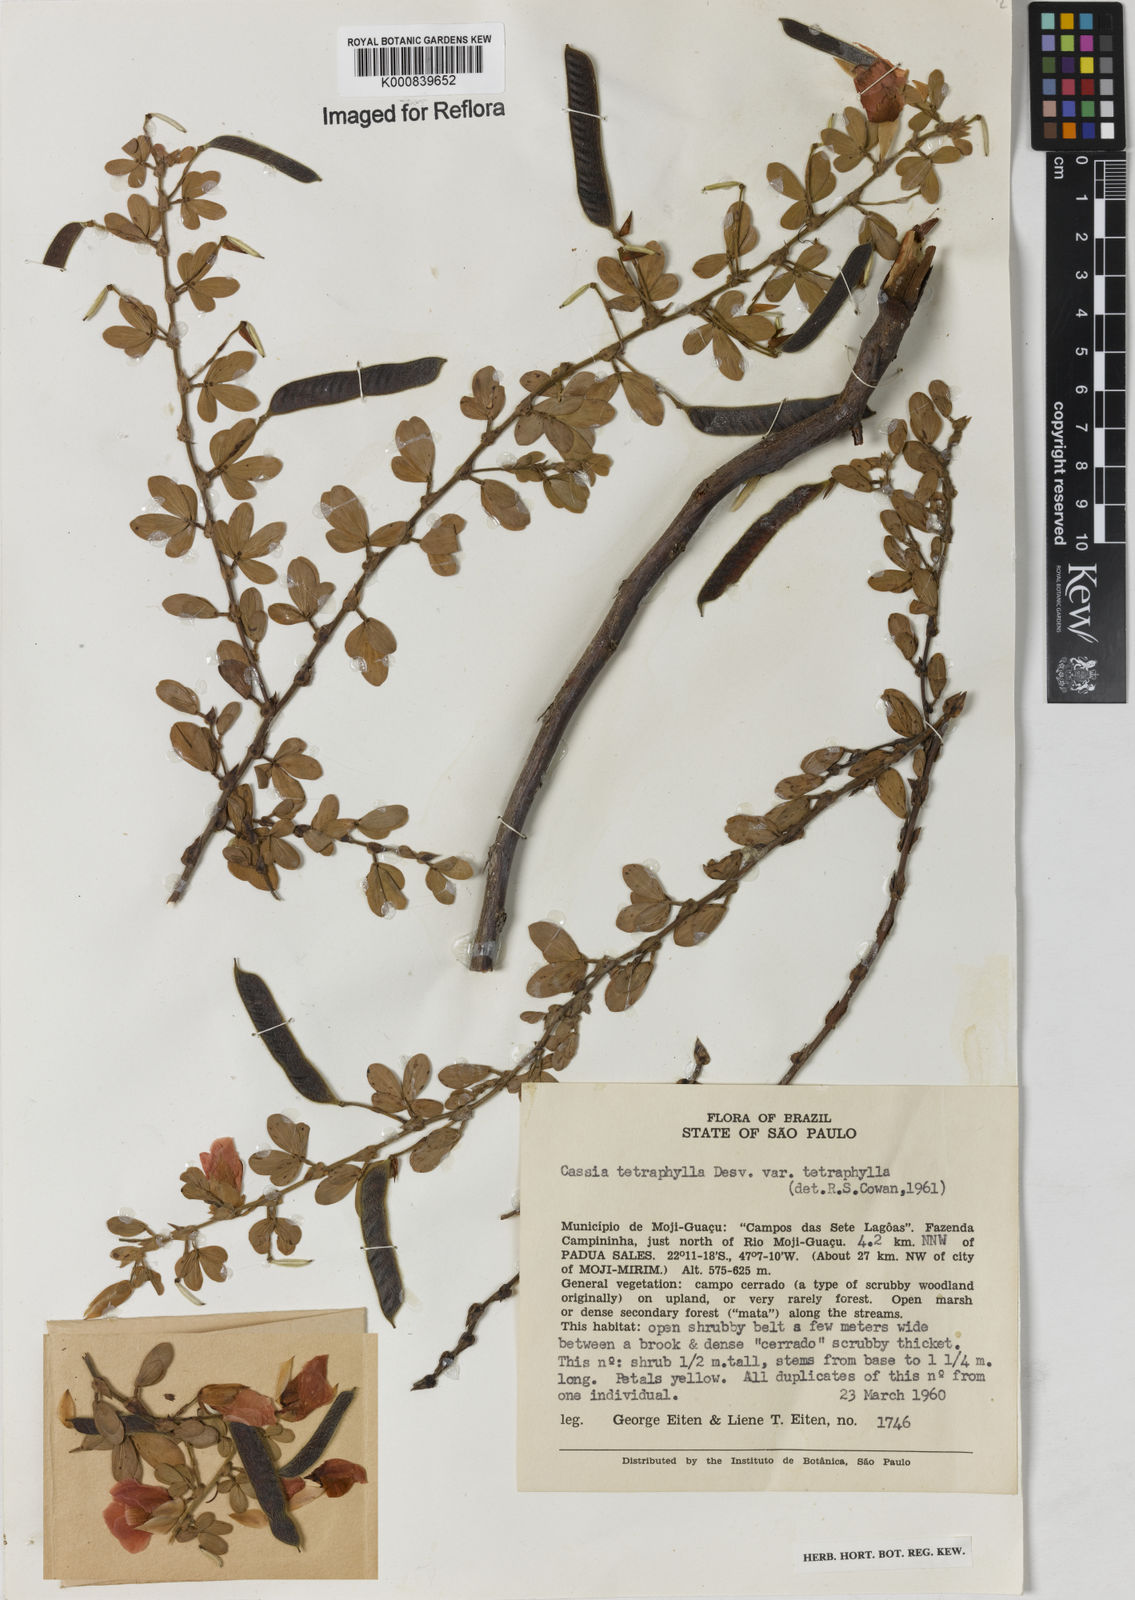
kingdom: Plantae
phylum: Tracheophyta
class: Magnoliopsida
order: Fabales
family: Fabaceae
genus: Chamaecrista
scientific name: Chamaecrista desvauxii
